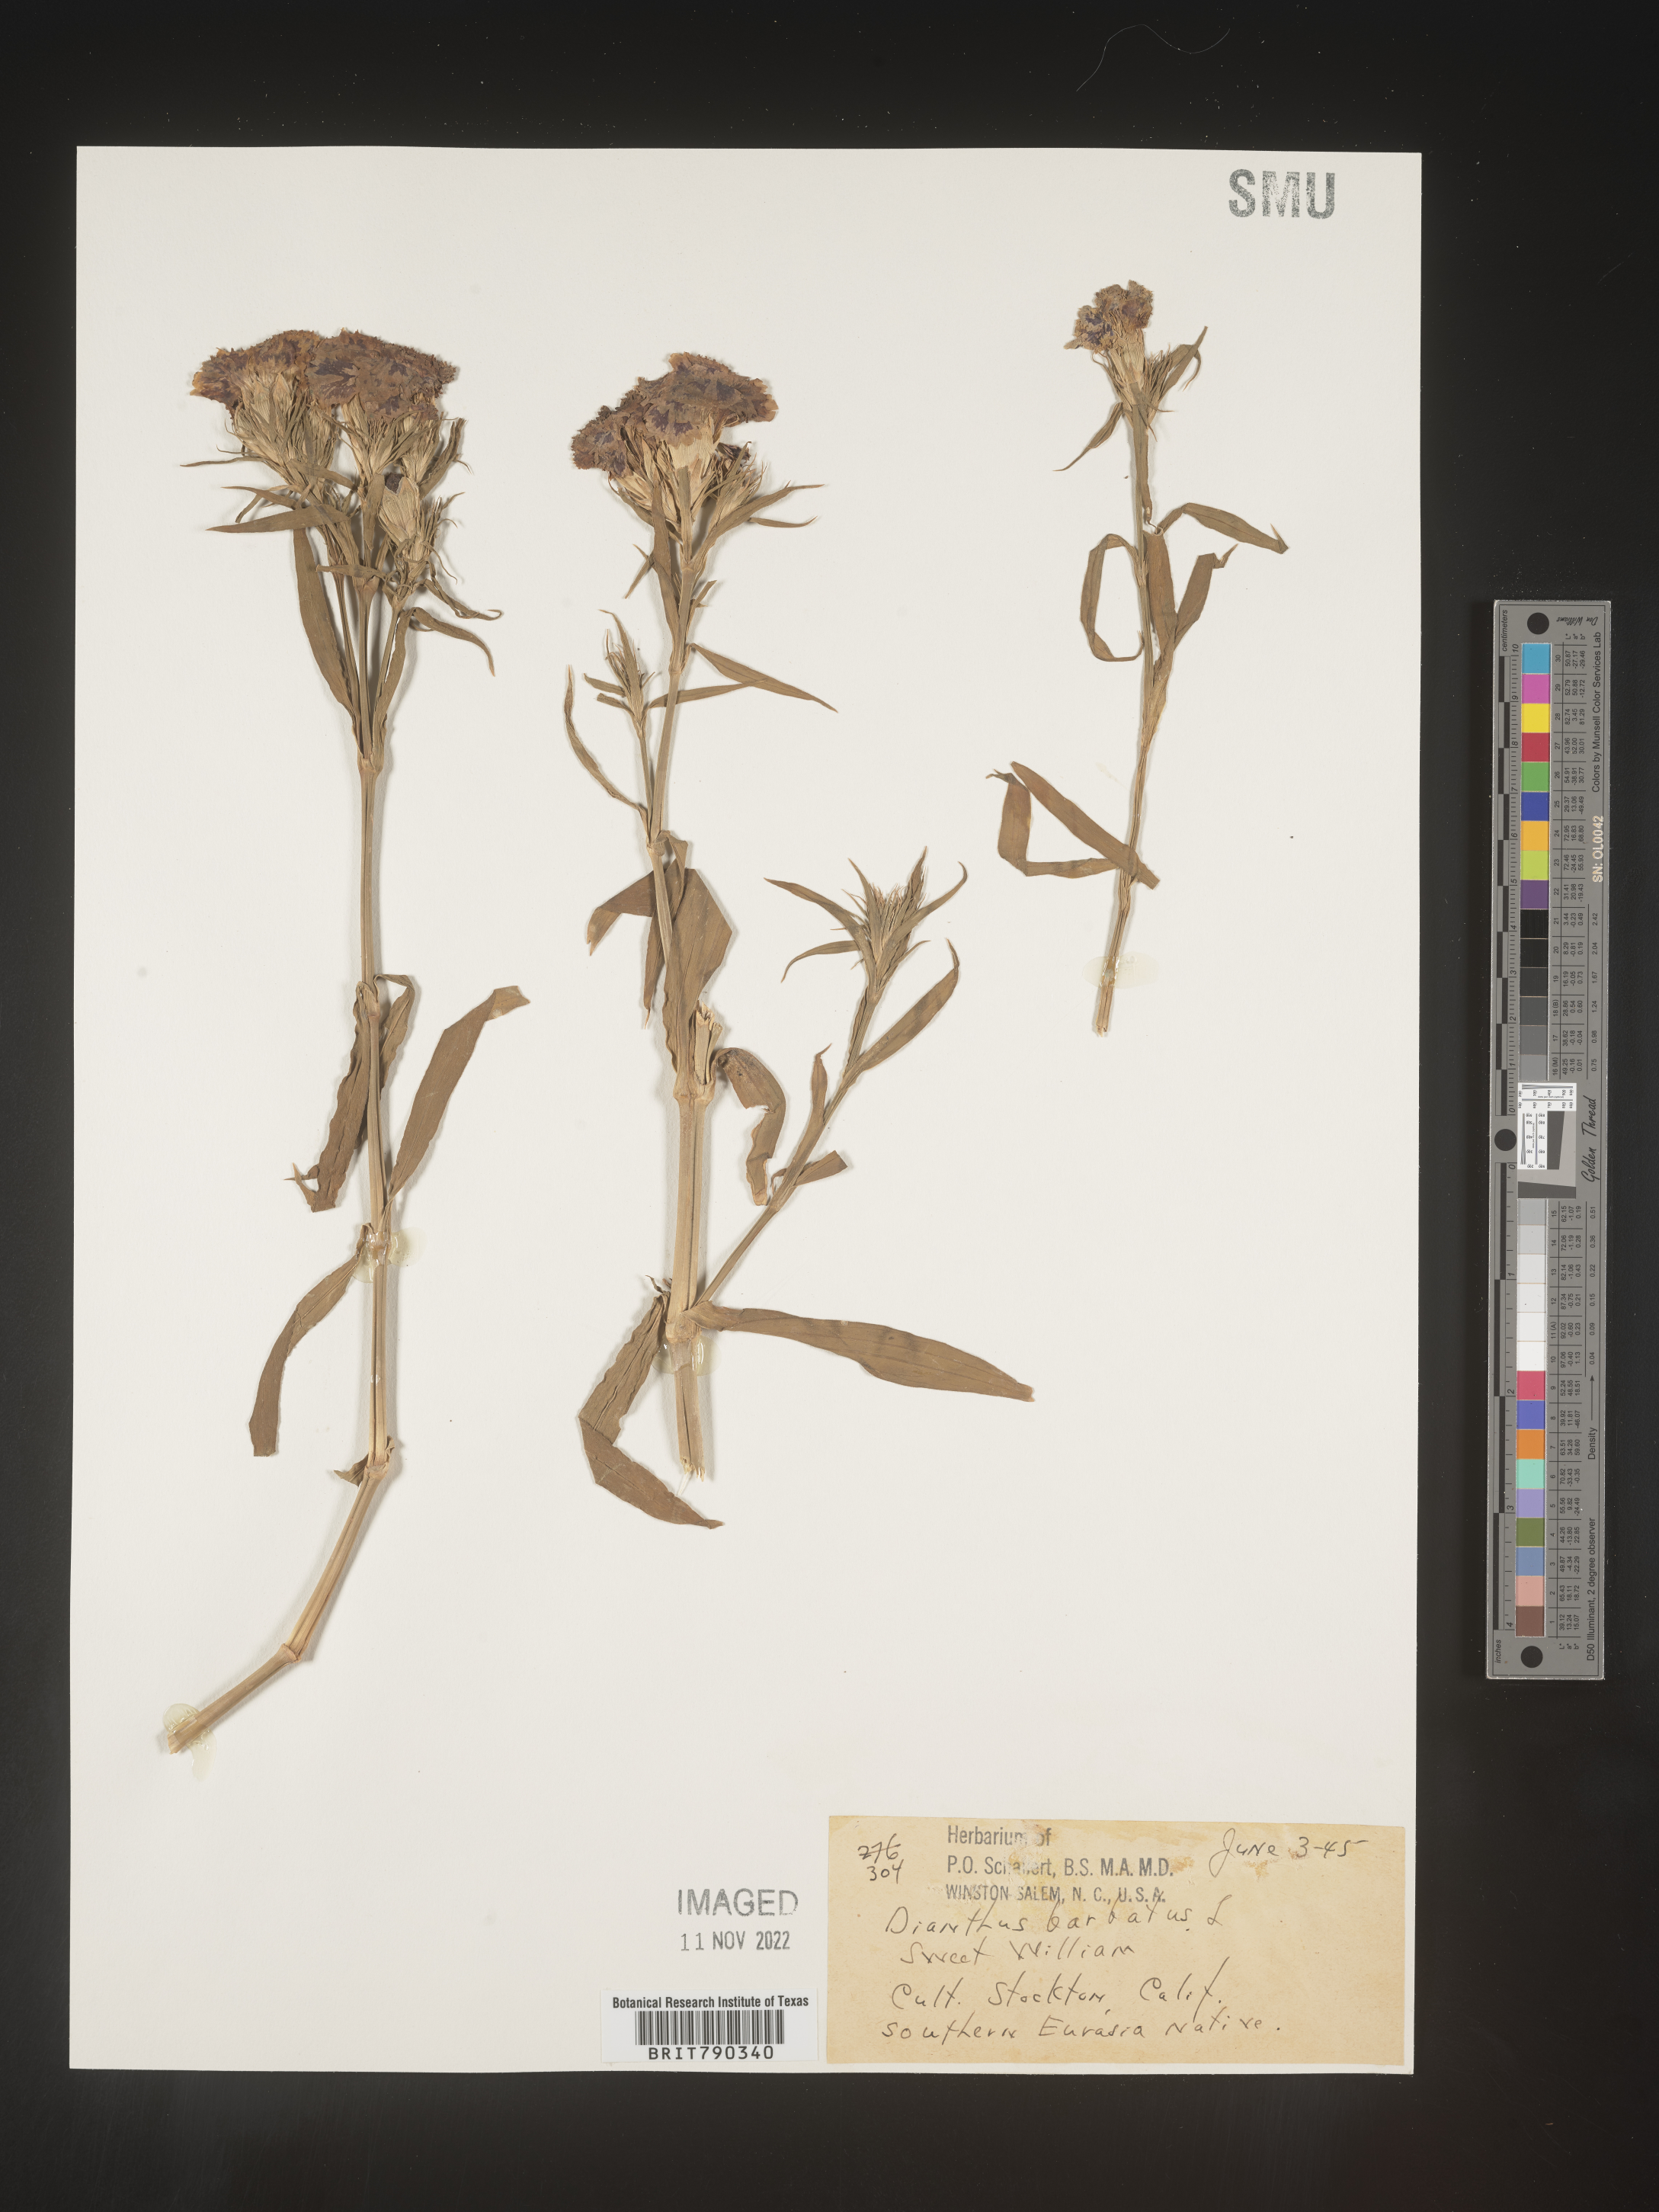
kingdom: Plantae
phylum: Tracheophyta
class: Magnoliopsida
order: Caryophyllales
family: Caryophyllaceae
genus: Dianthus
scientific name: Dianthus
